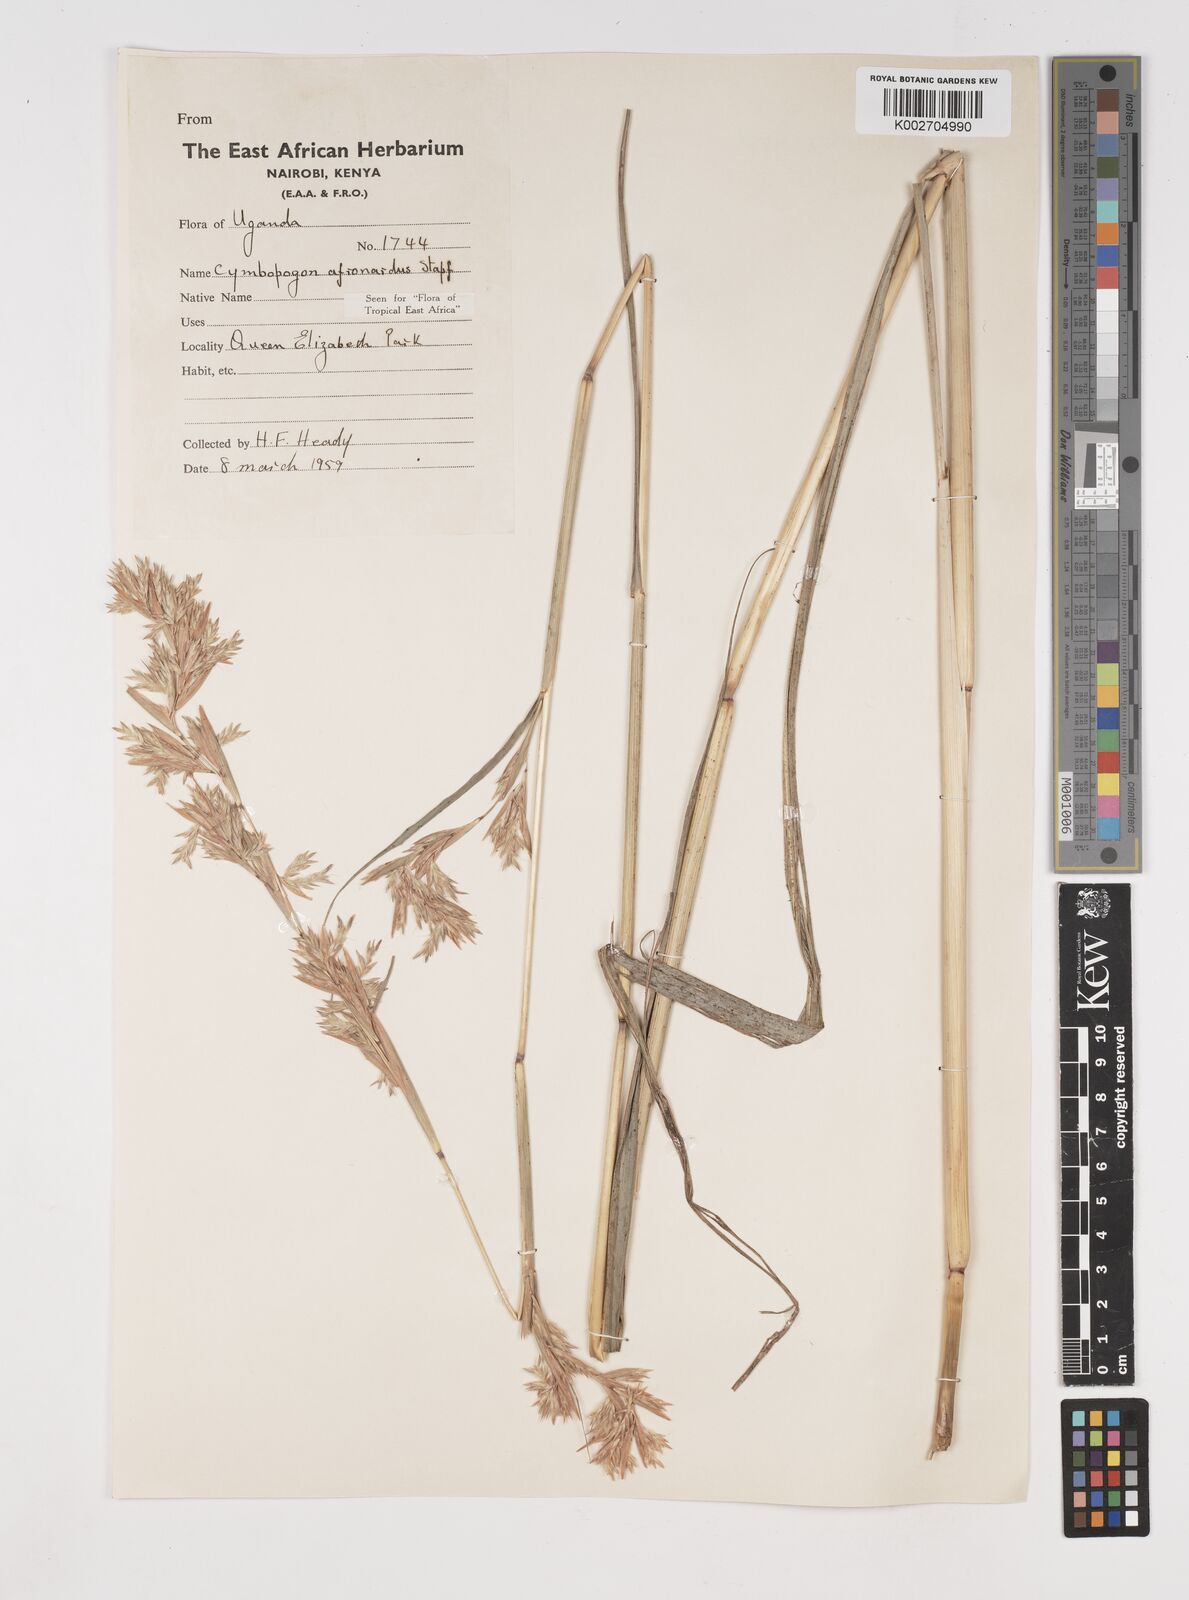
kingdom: Plantae
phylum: Tracheophyta
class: Liliopsida
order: Poales
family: Poaceae
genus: Cymbopogon
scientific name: Cymbopogon nardus
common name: Giant turpentine grass
